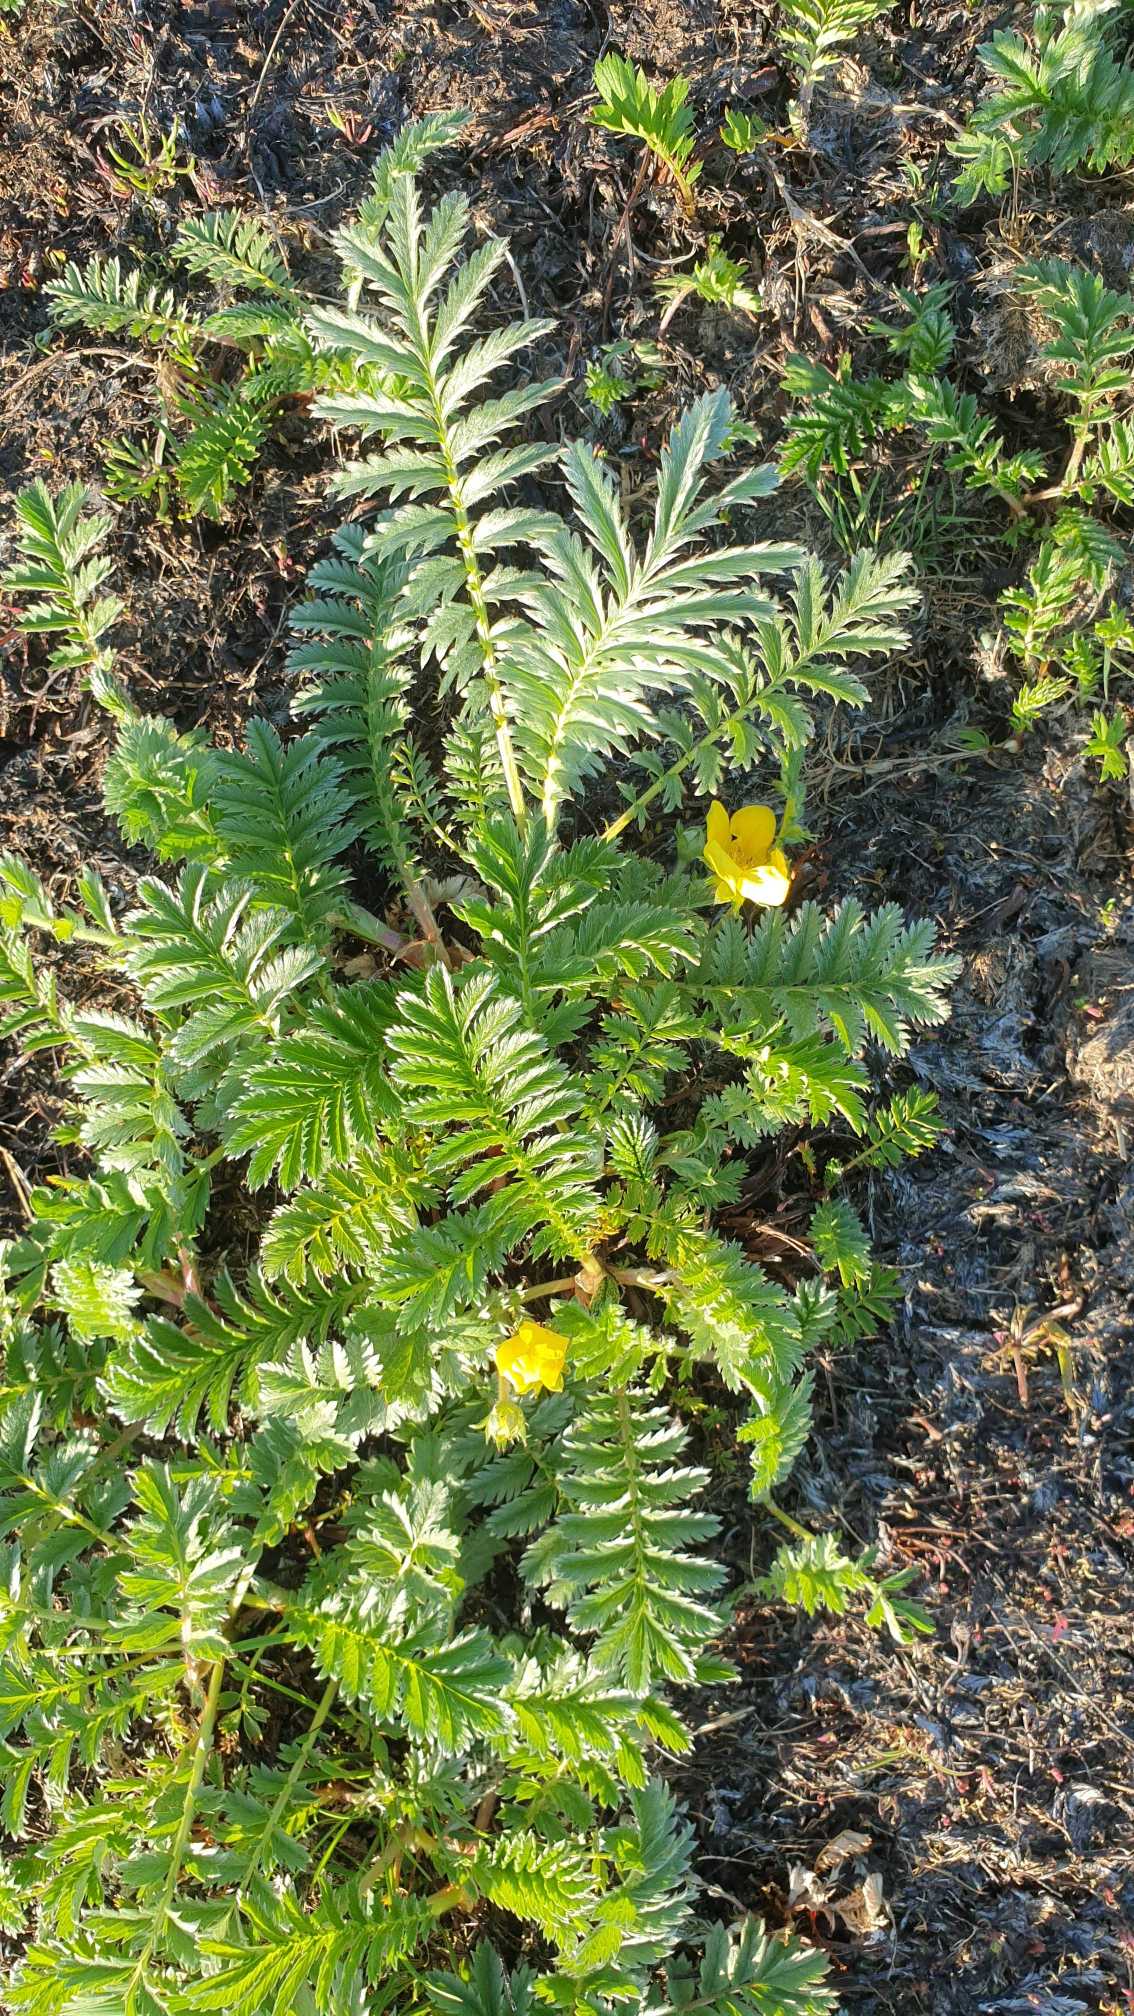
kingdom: Plantae
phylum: Tracheophyta
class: Magnoliopsida
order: Rosales
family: Rosaceae
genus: Argentina
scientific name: Argentina anserina
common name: Gåsepotentil
